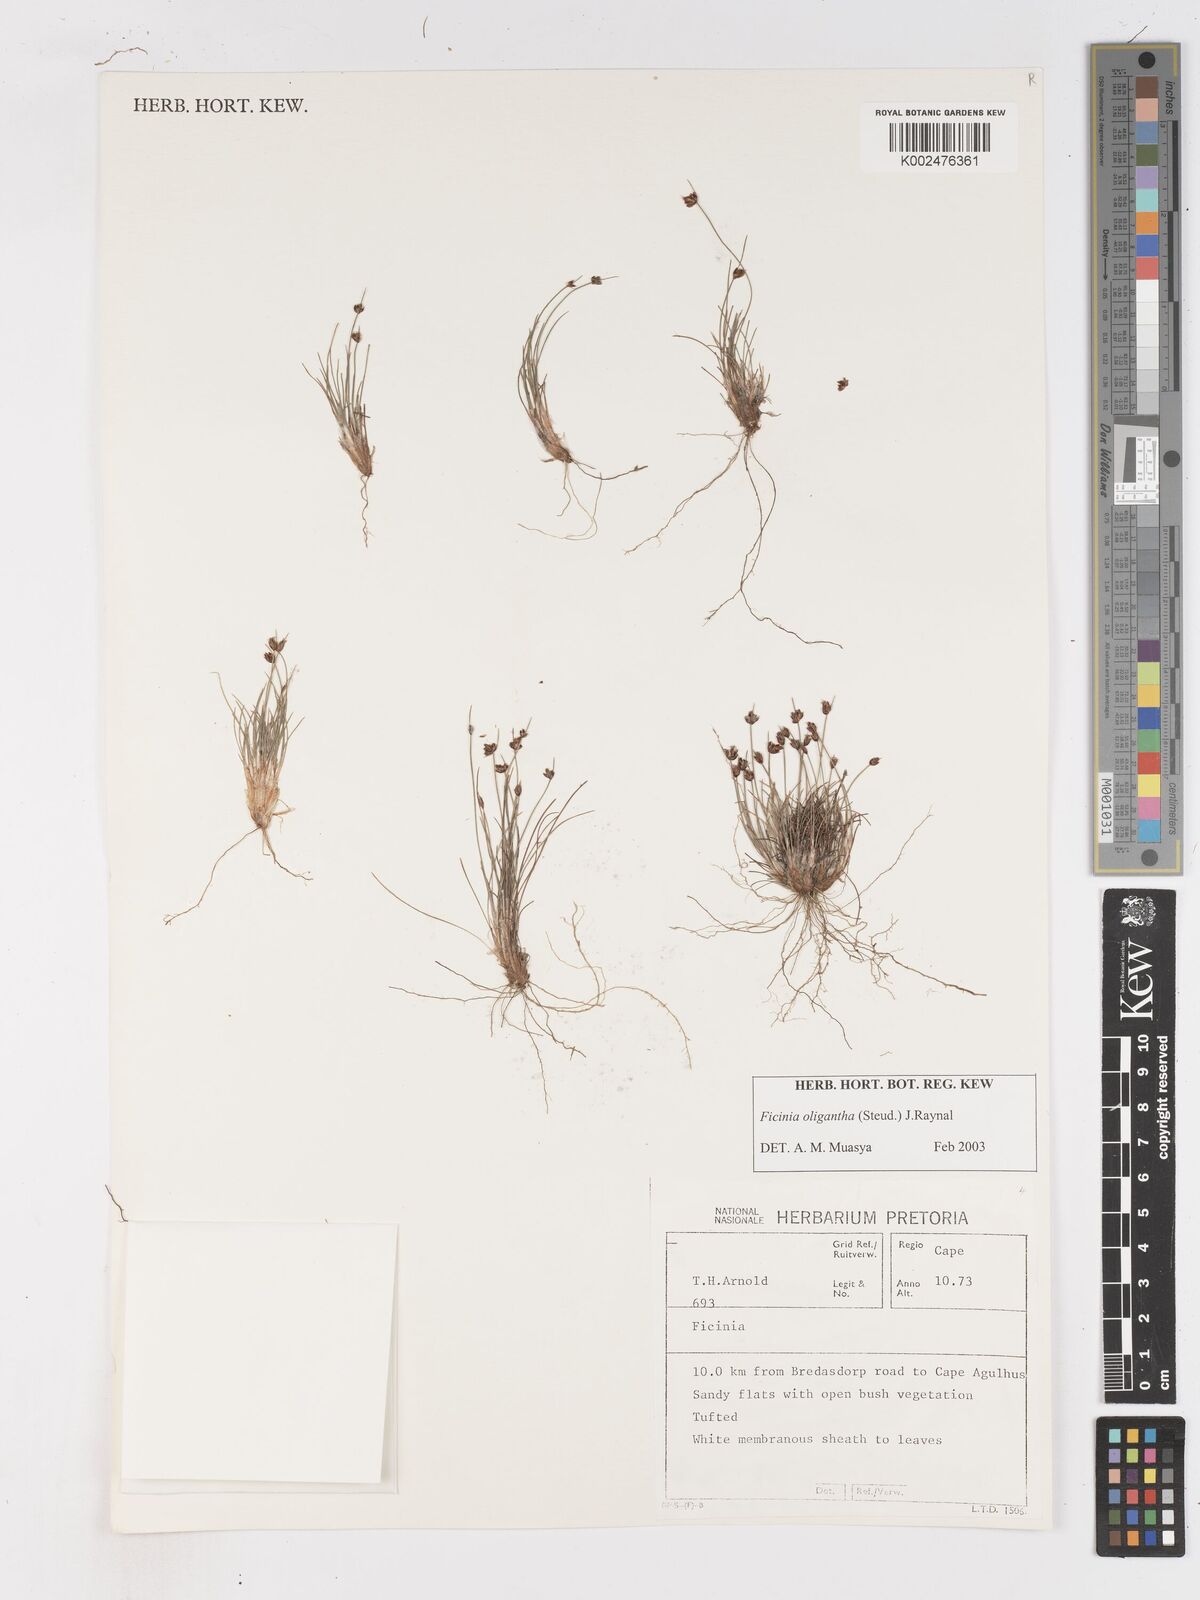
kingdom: Plantae
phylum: Tracheophyta
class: Liliopsida
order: Poales
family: Cyperaceae
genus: Ficinia
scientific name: Ficinia oligantha
